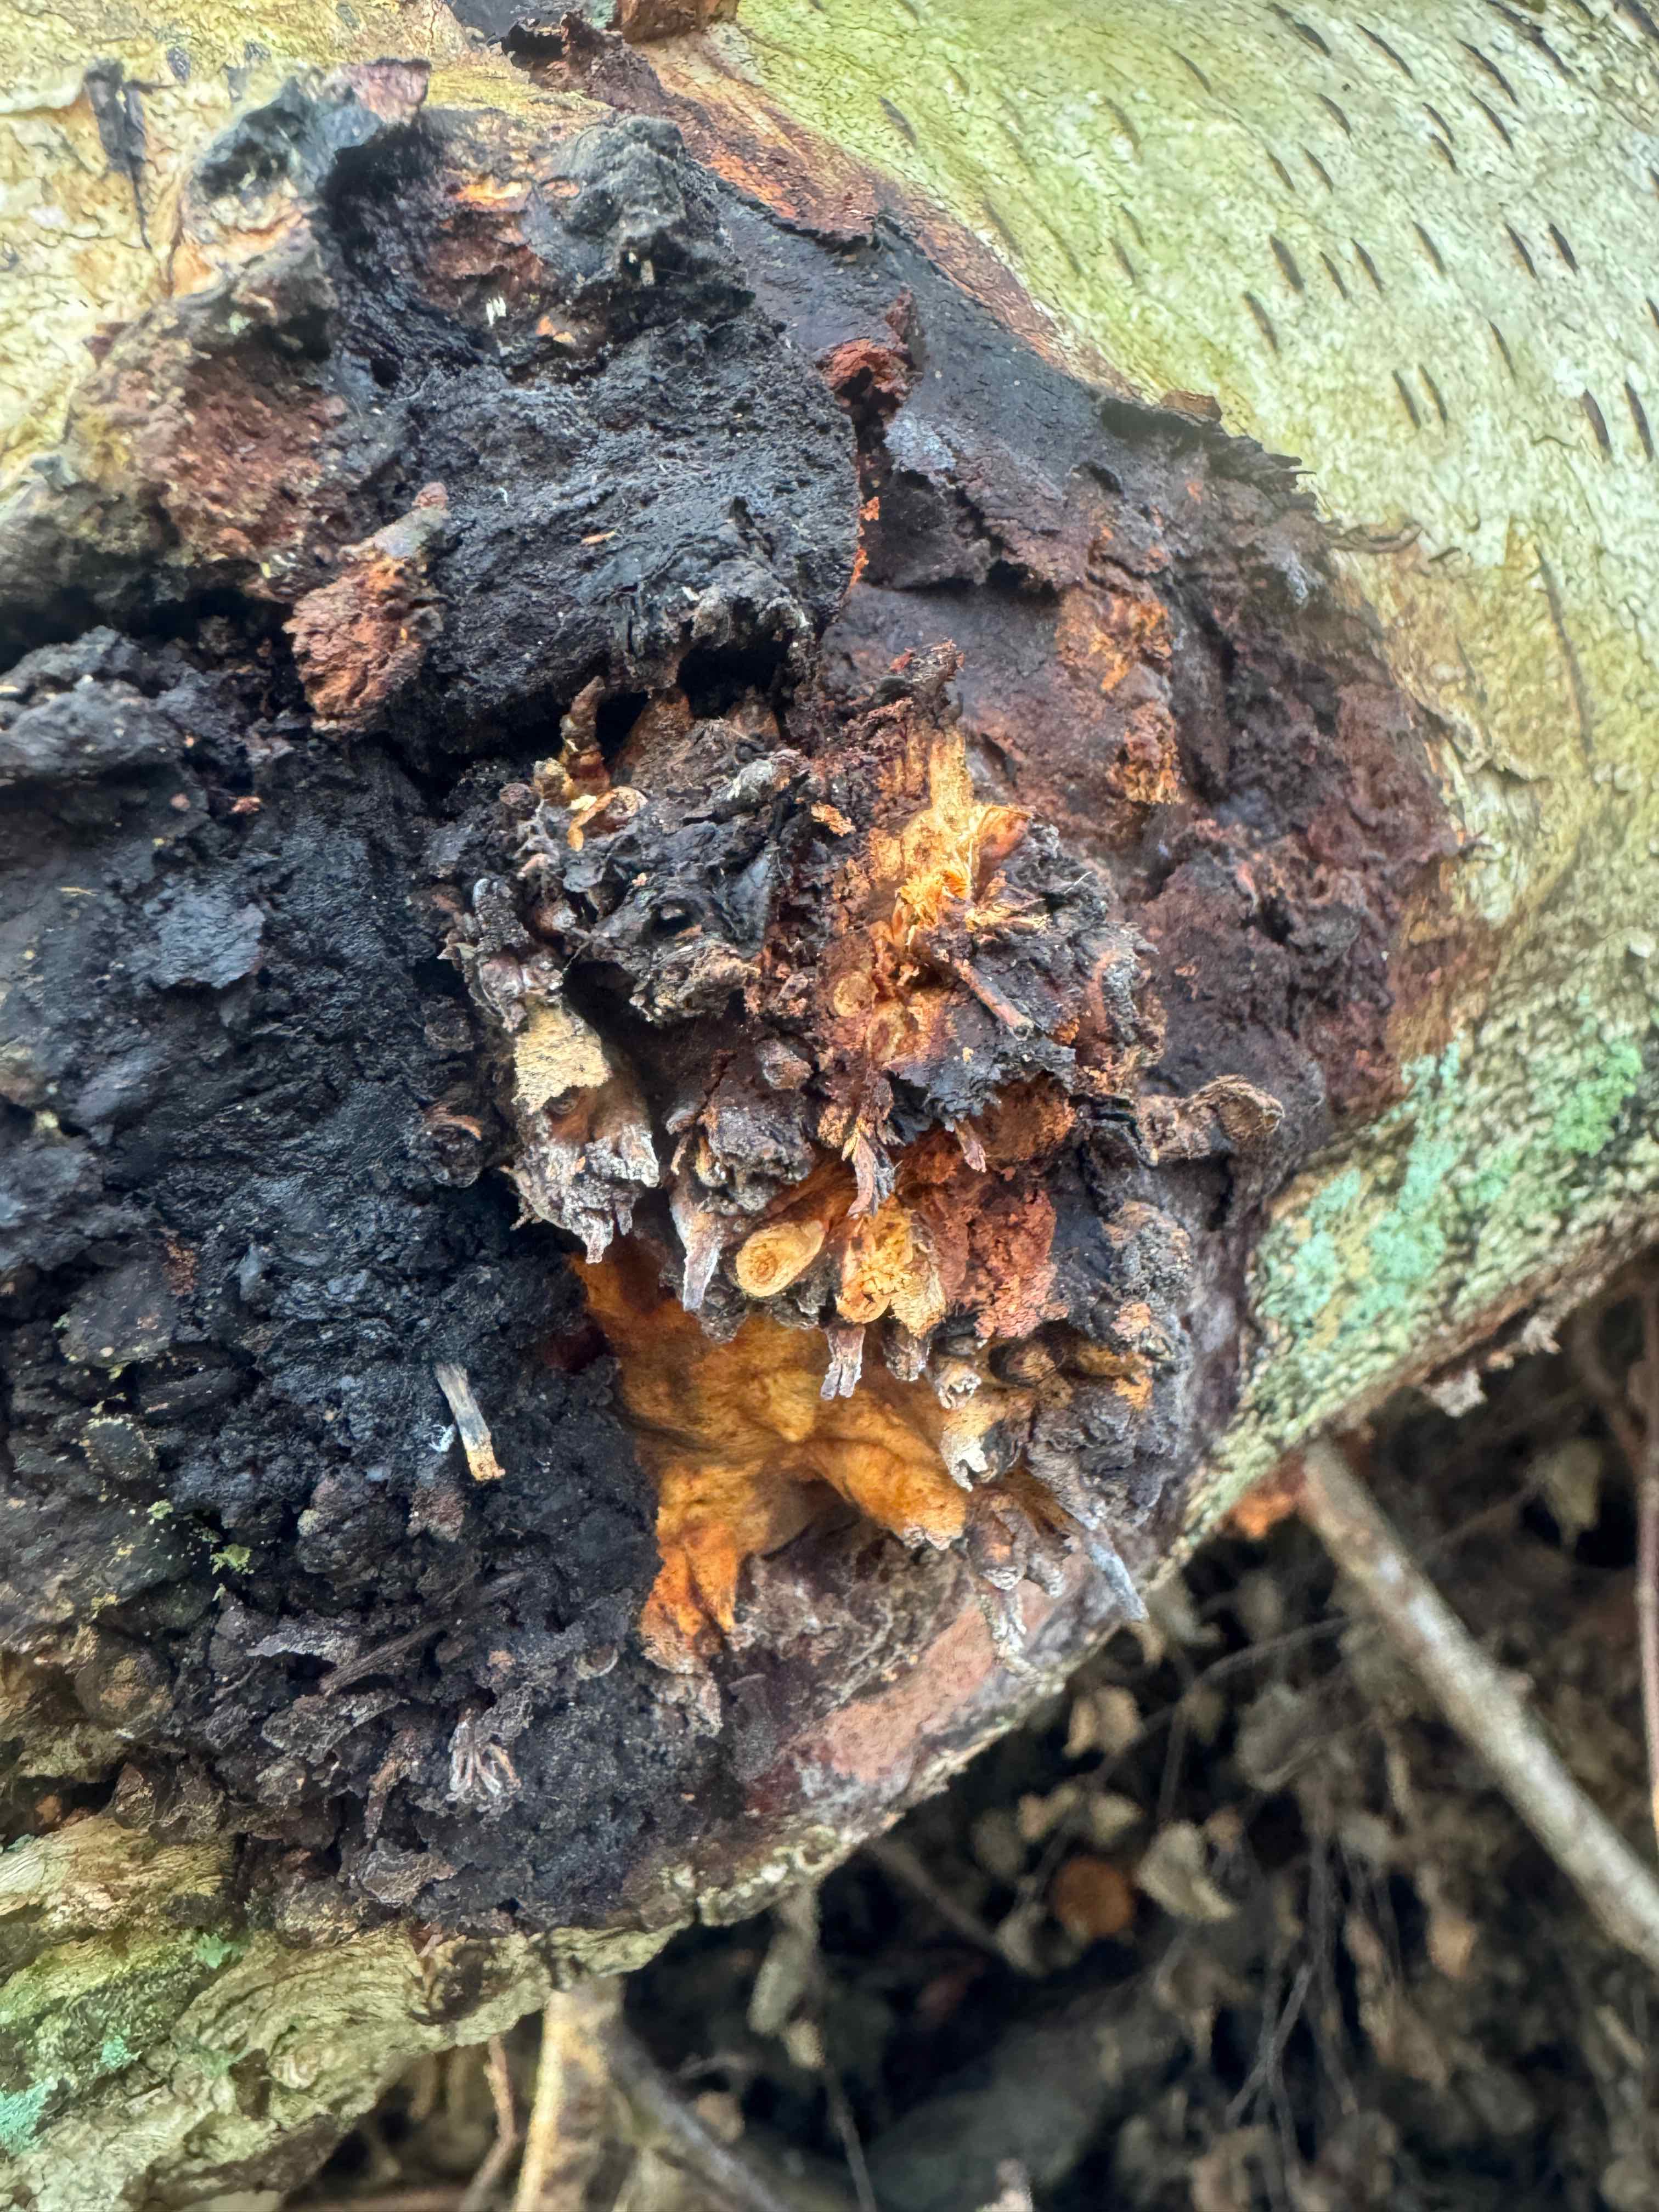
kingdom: Fungi
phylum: Basidiomycota
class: Agaricomycetes
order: Hymenochaetales
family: Hymenochaetaceae
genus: Inonotus
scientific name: Inonotus obliquus
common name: birke-spejlporesvamp
